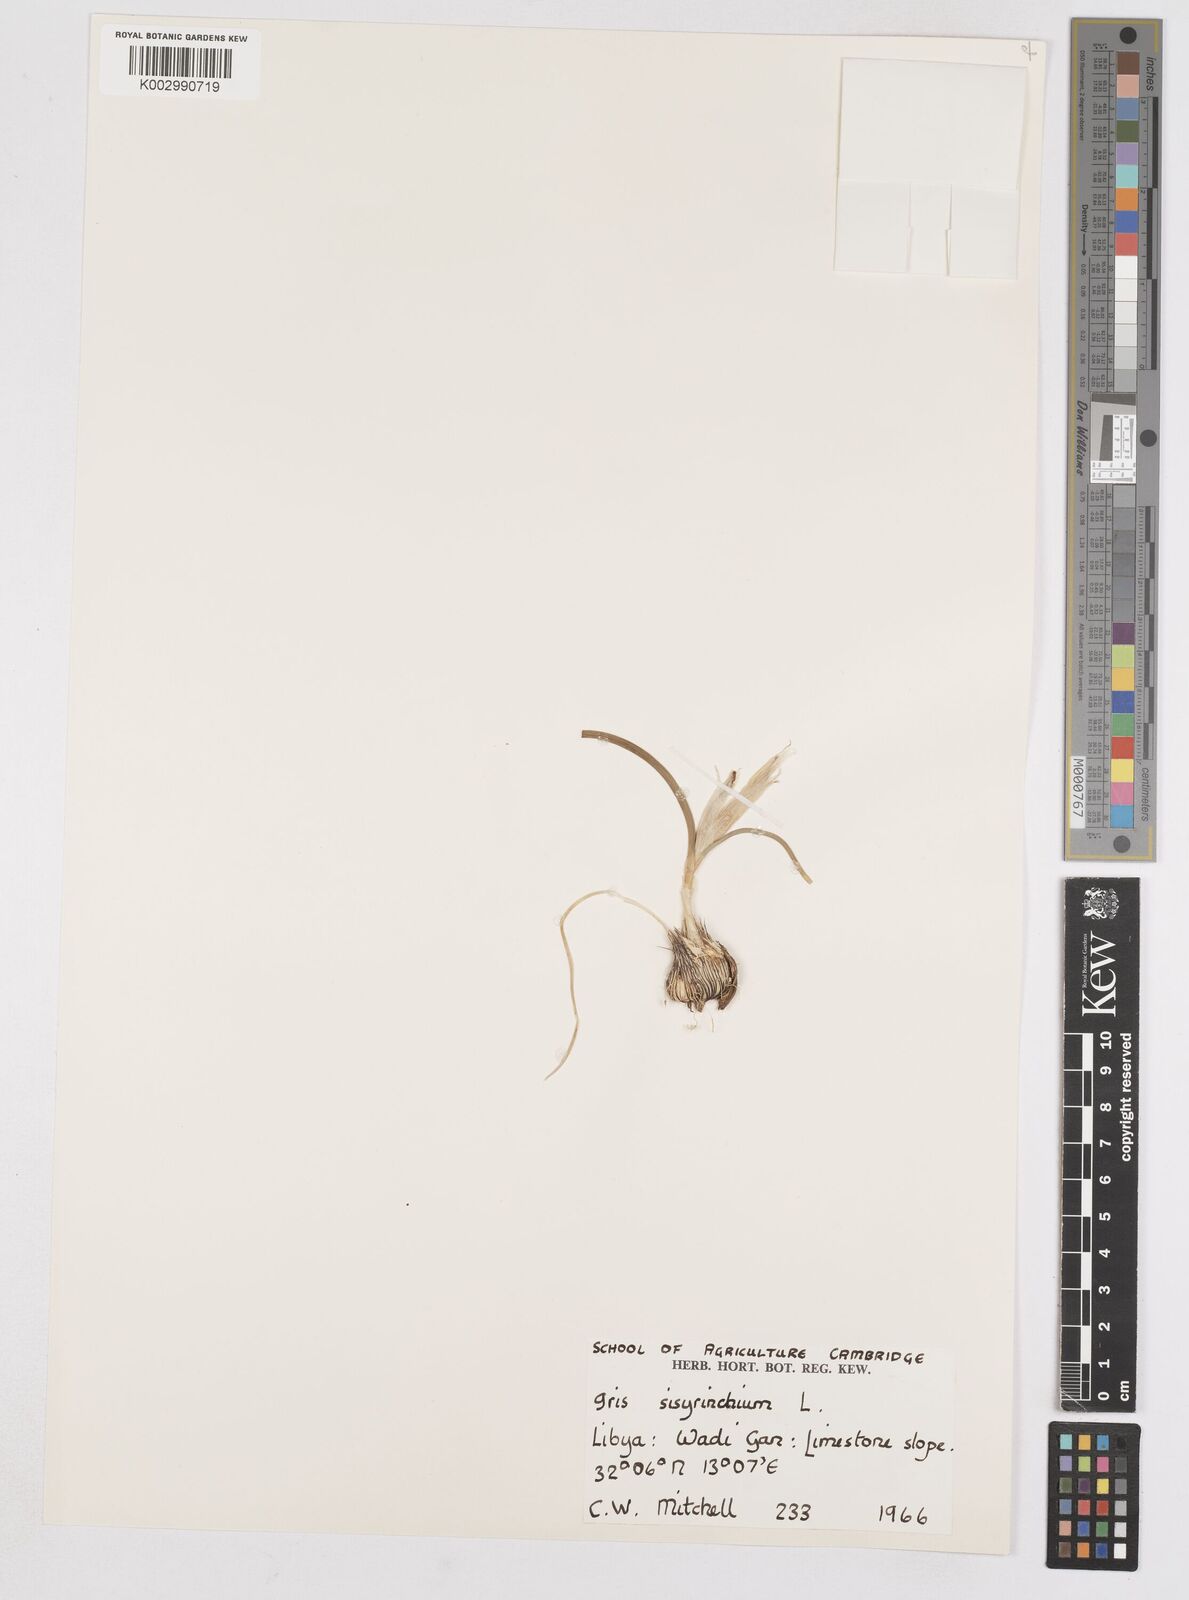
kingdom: Plantae
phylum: Tracheophyta
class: Liliopsida
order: Asparagales
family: Iridaceae
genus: Moraea
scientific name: Moraea sisyrinchium
